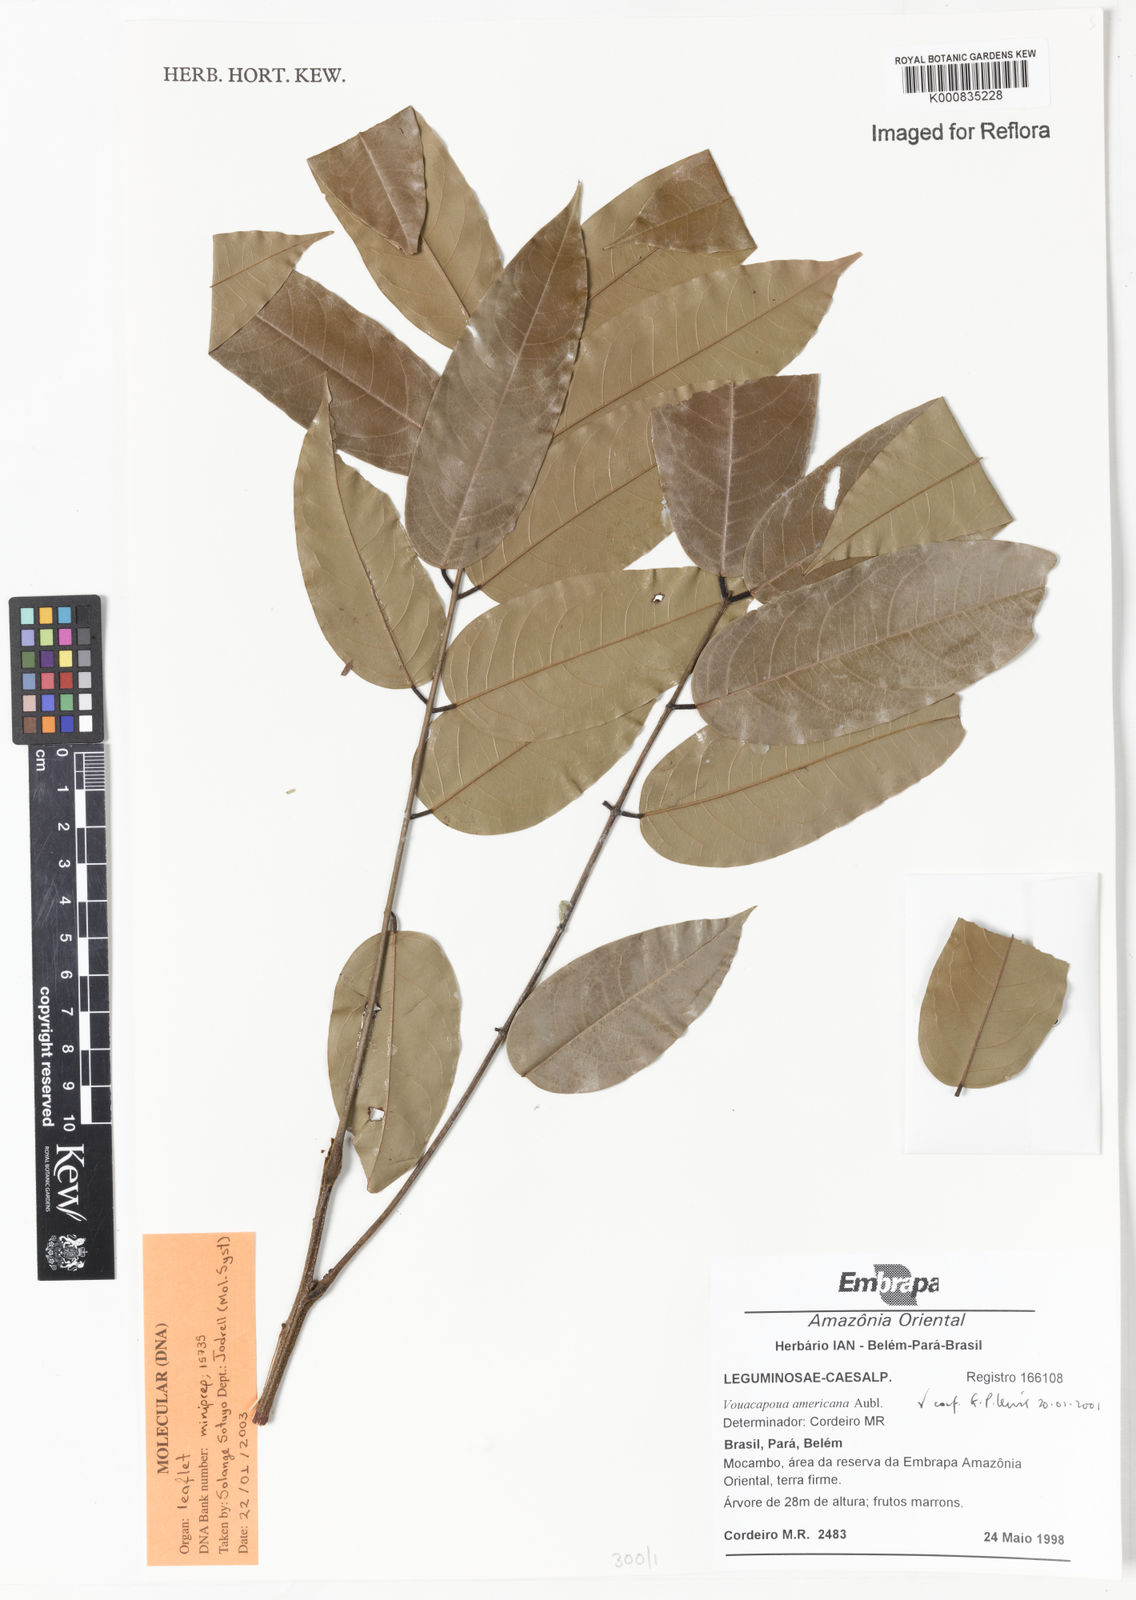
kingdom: Plantae
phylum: Tracheophyta
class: Magnoliopsida
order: Fabales
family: Fabaceae
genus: Vouacapoua
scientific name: Vouacapoua americana
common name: Partridgewood
